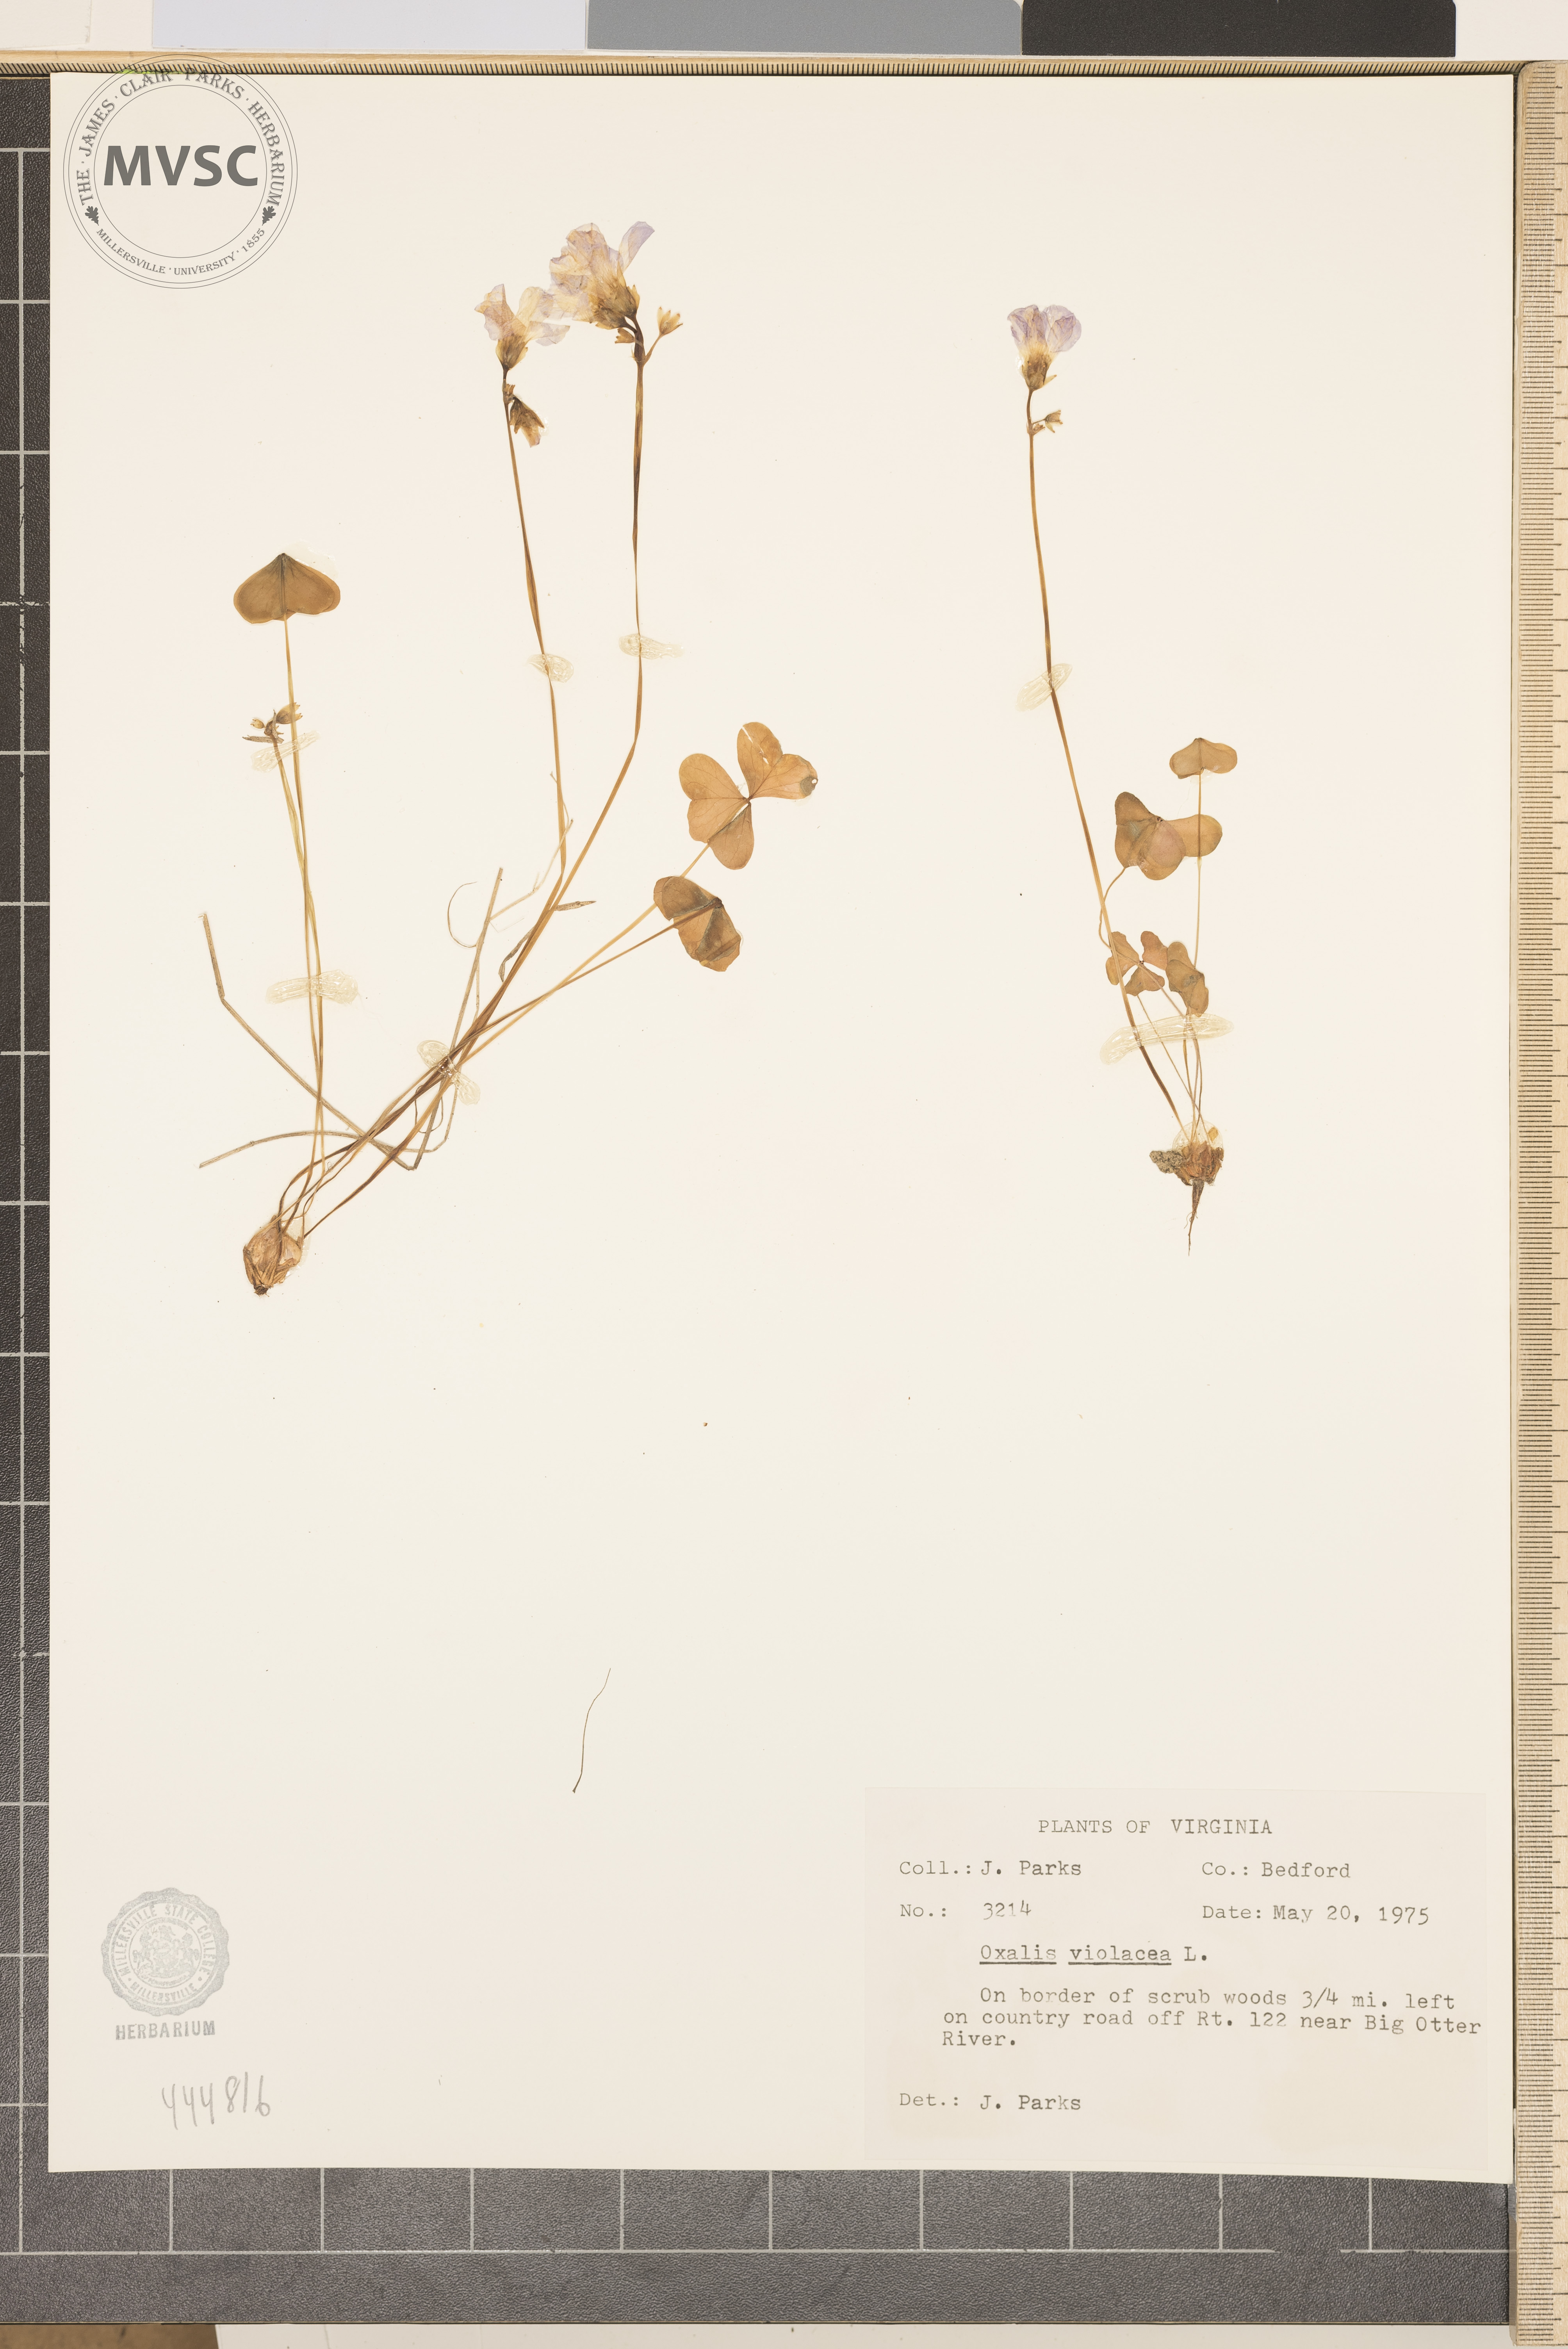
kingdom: Plantae
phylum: Tracheophyta
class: Magnoliopsida
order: Oxalidales
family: Oxalidaceae
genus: Oxalis
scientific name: Oxalis violacea
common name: Violet wood-sorrel
